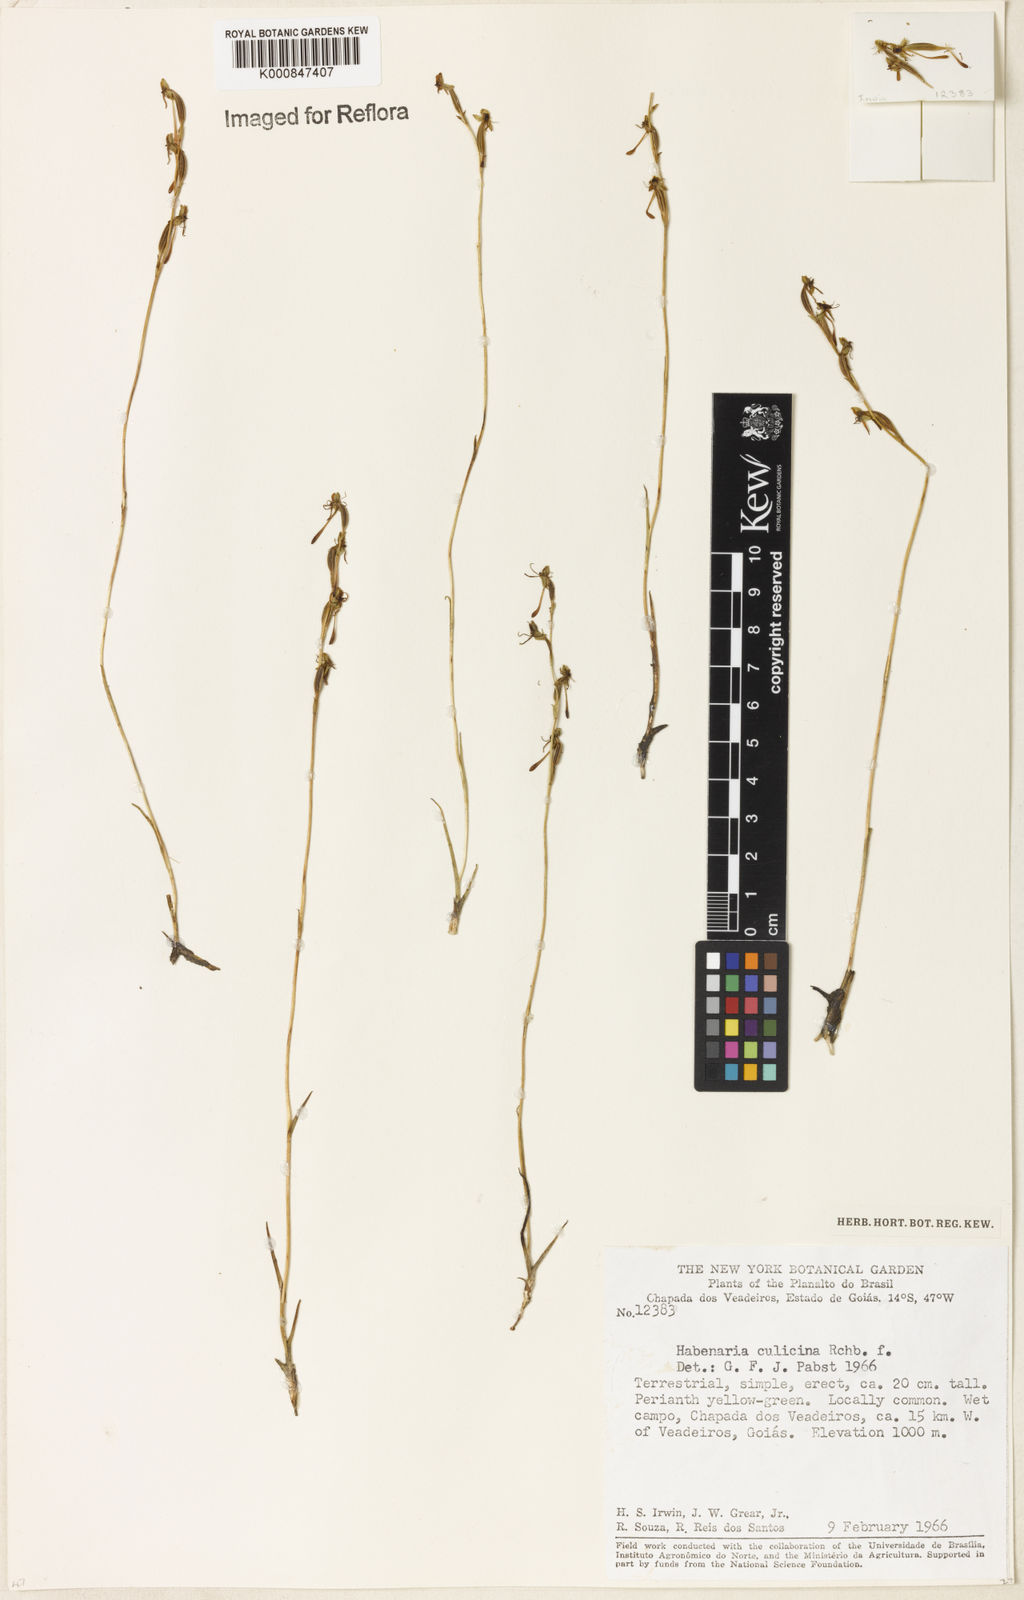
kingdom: Plantae
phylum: Tracheophyta
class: Liliopsida
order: Asparagales
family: Orchidaceae
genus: Habenaria
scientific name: Habenaria culicina
